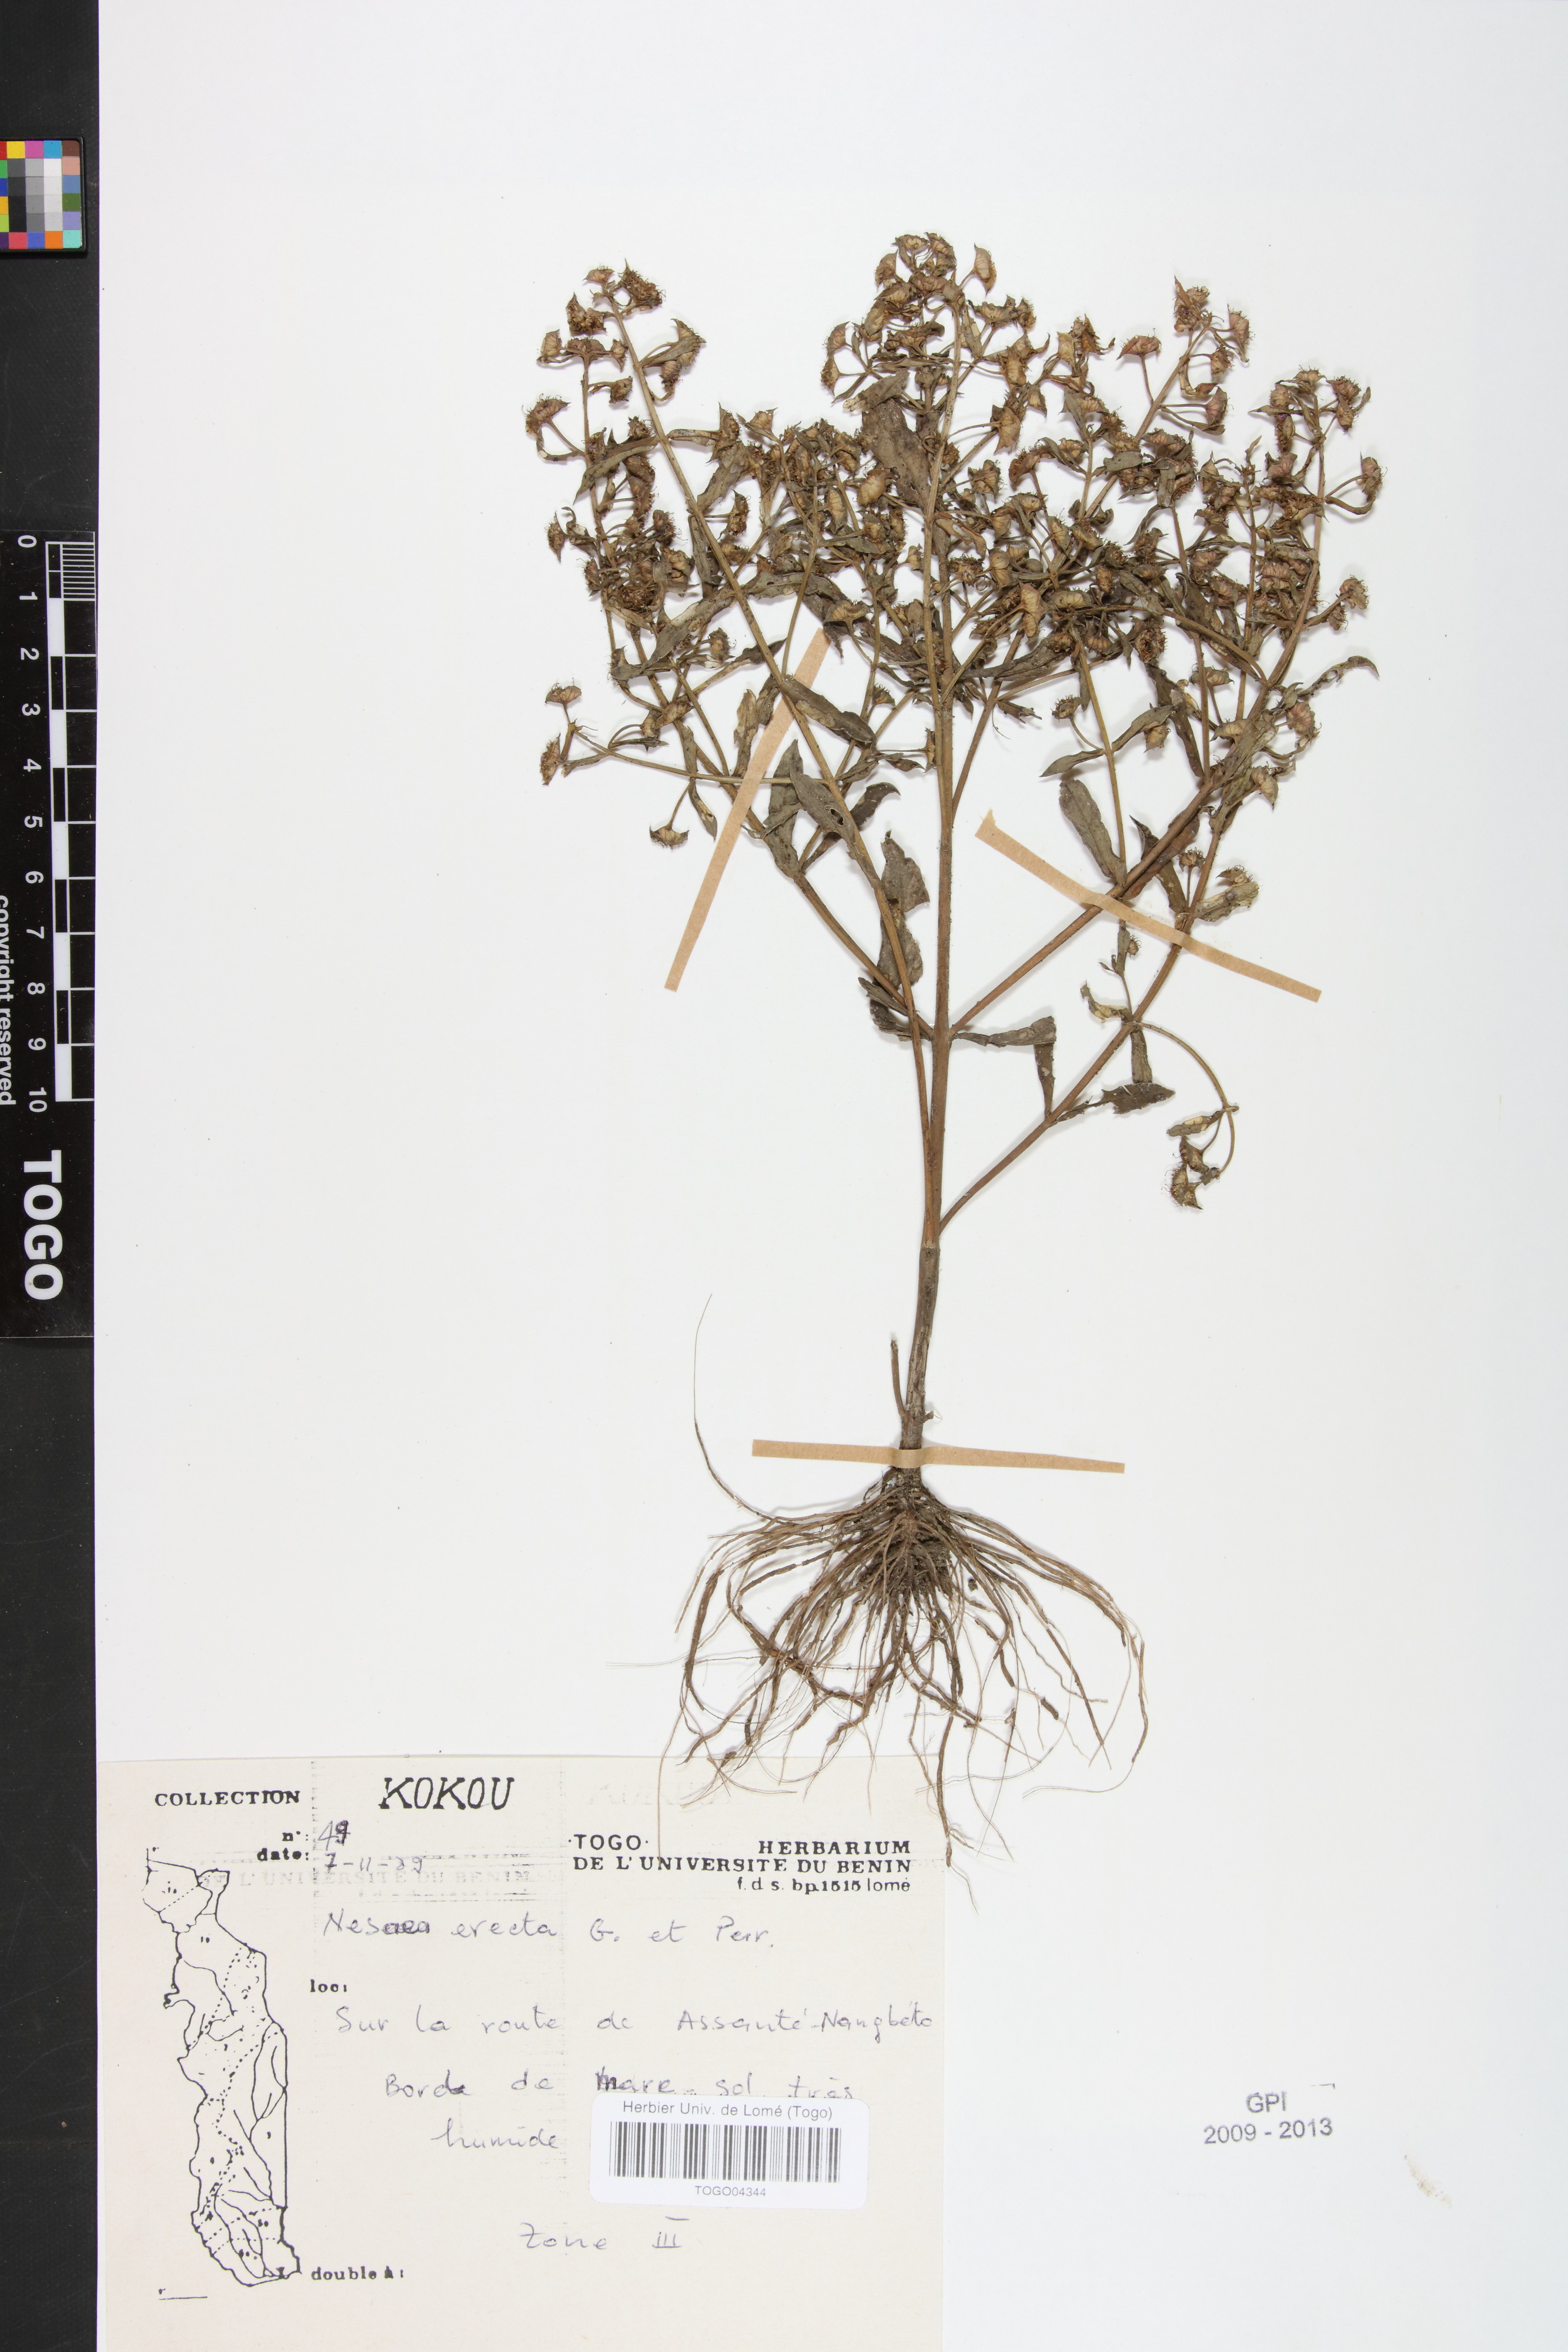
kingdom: Plantae
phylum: Tracheophyta
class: Magnoliopsida
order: Myrtales
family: Lythraceae
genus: Ammannia
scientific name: Ammannia erecta
